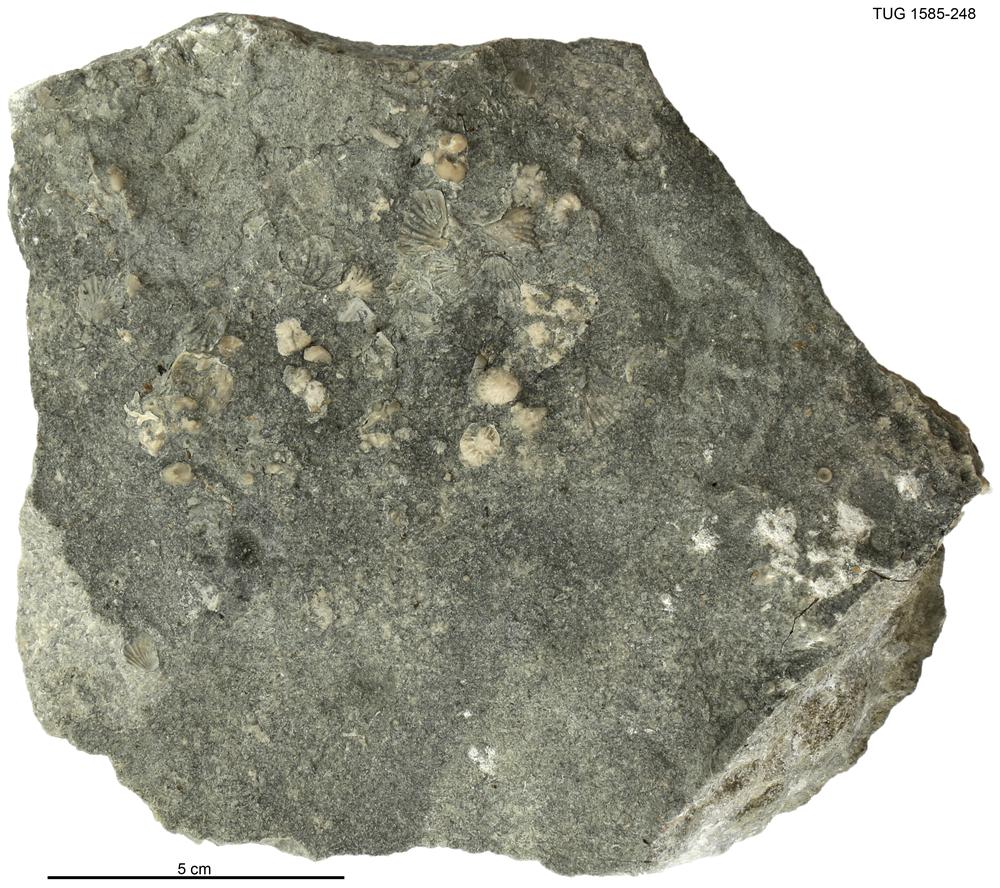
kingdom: Animalia
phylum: Brachiopoda
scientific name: Brachiopoda
